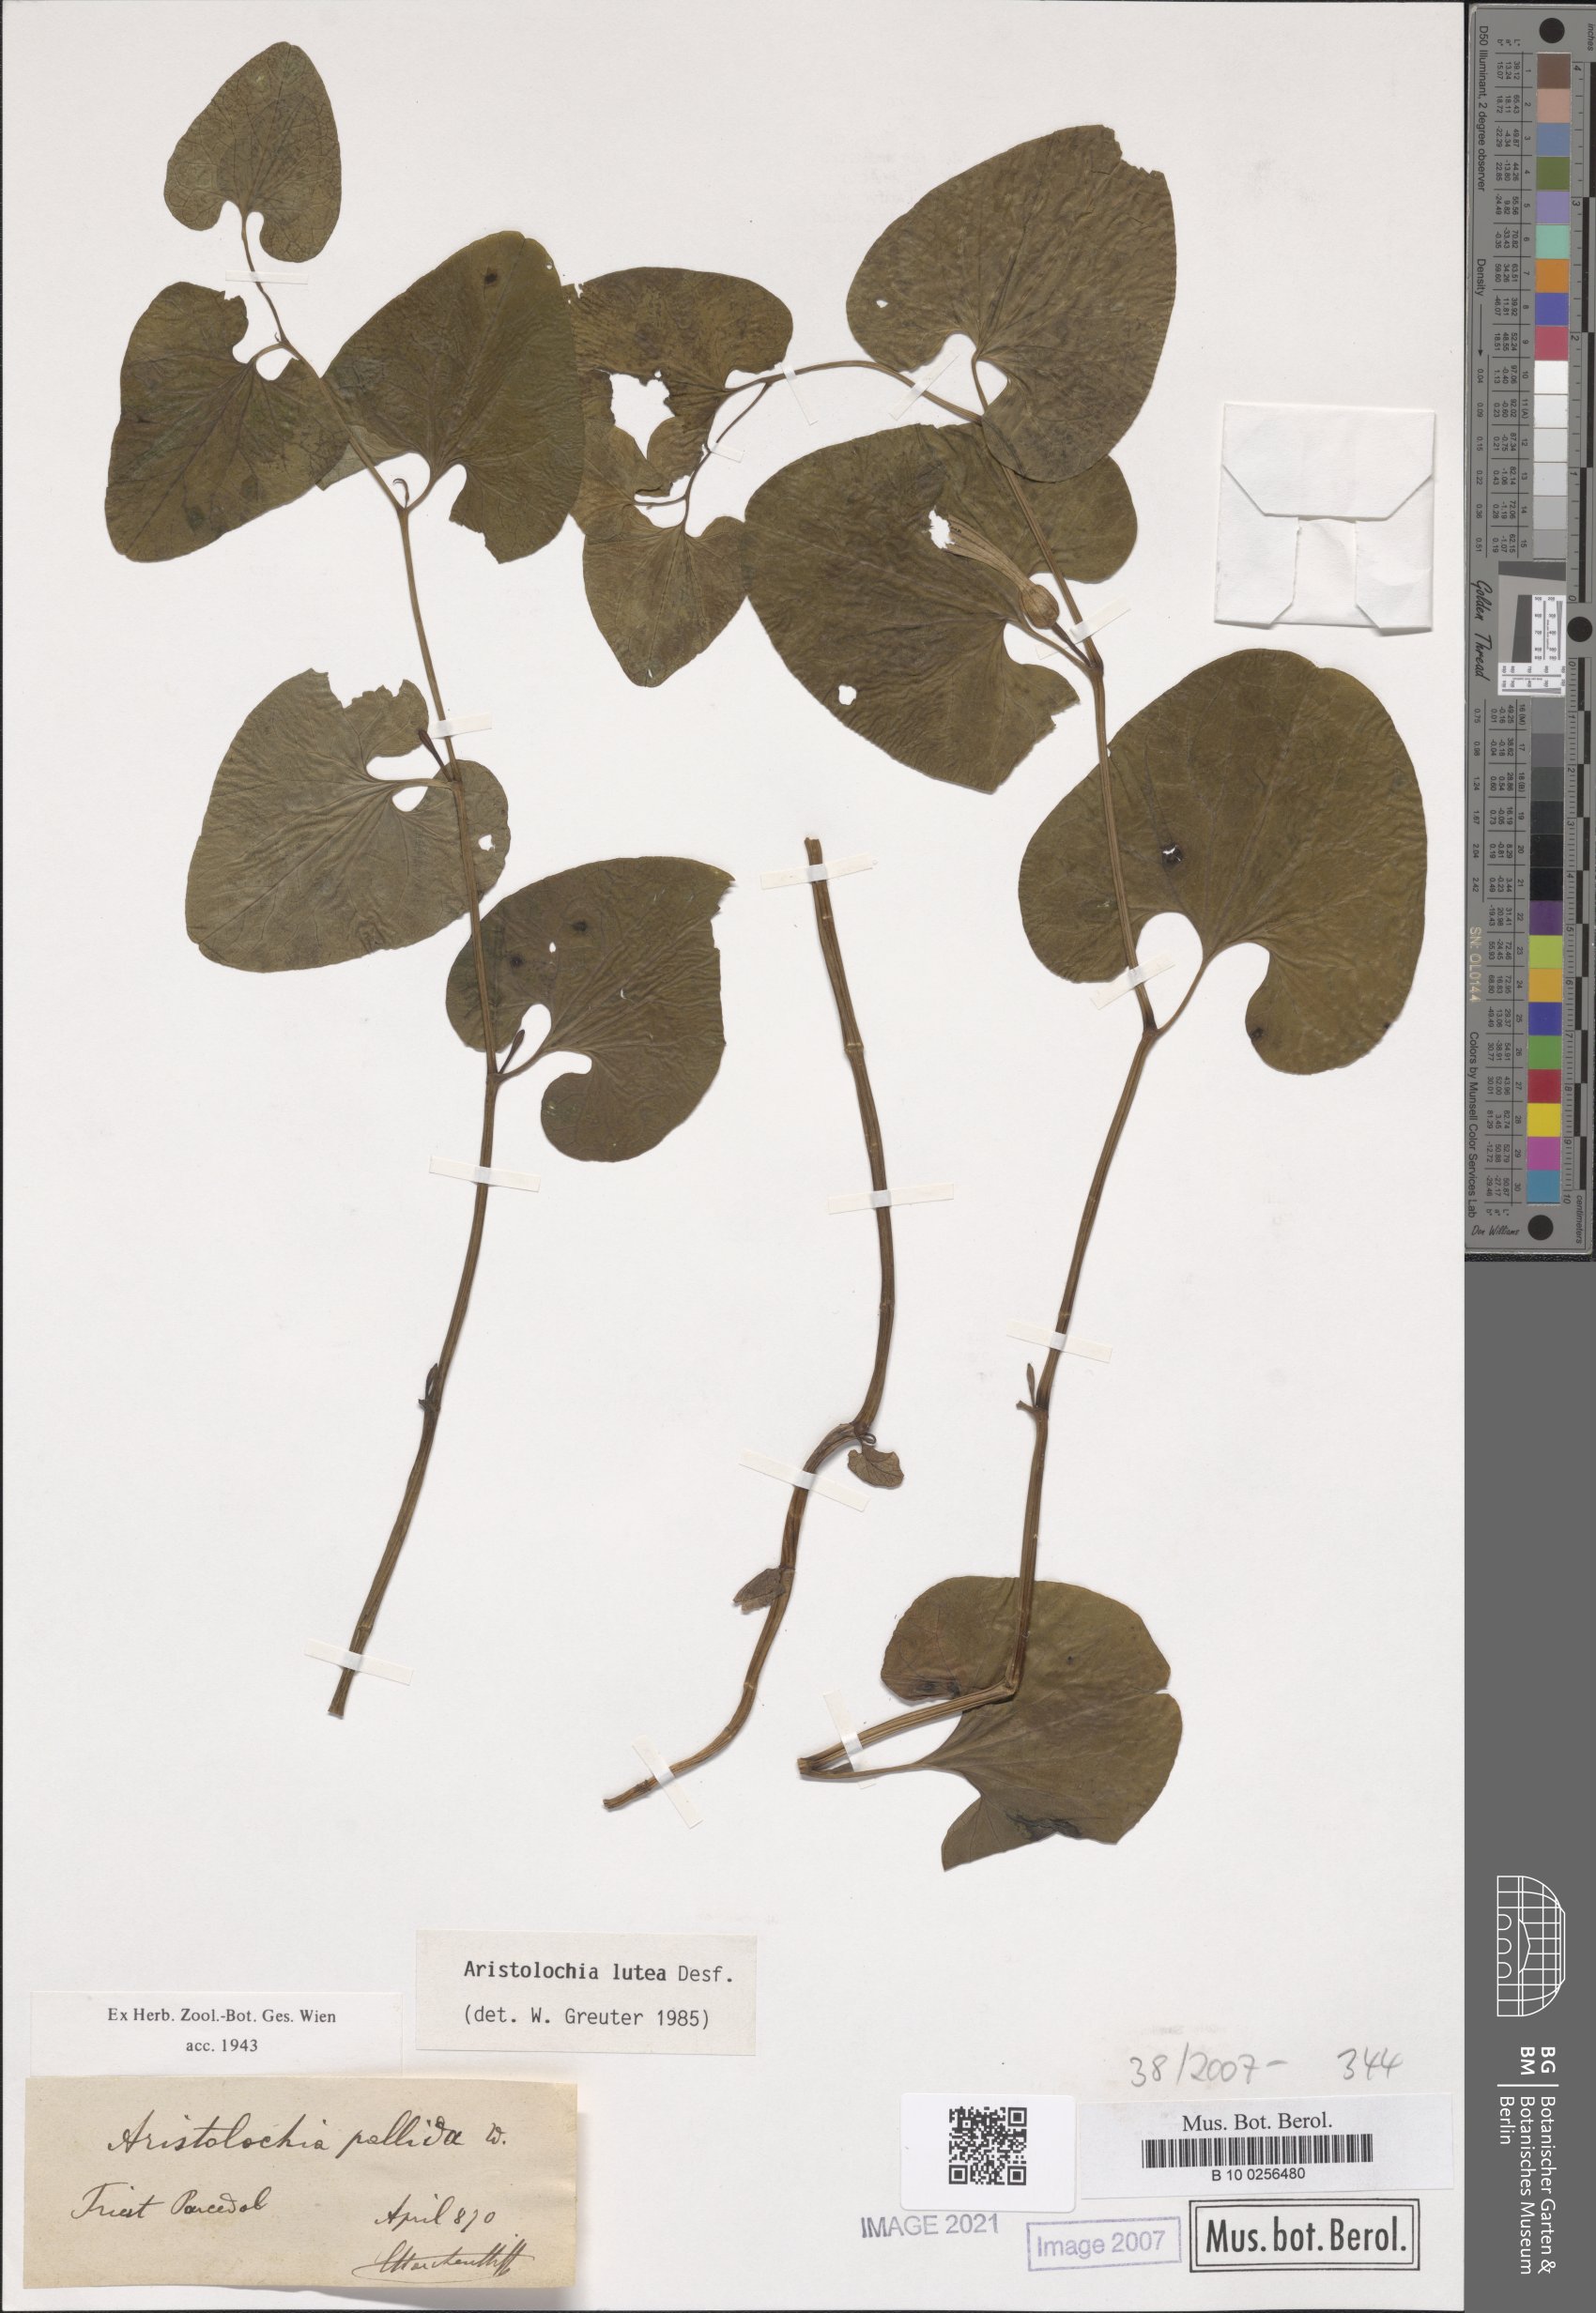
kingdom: Plantae
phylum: Tracheophyta
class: Magnoliopsida
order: Piperales
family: Aristolochiaceae
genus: Aristolochia
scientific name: Aristolochia lutea
